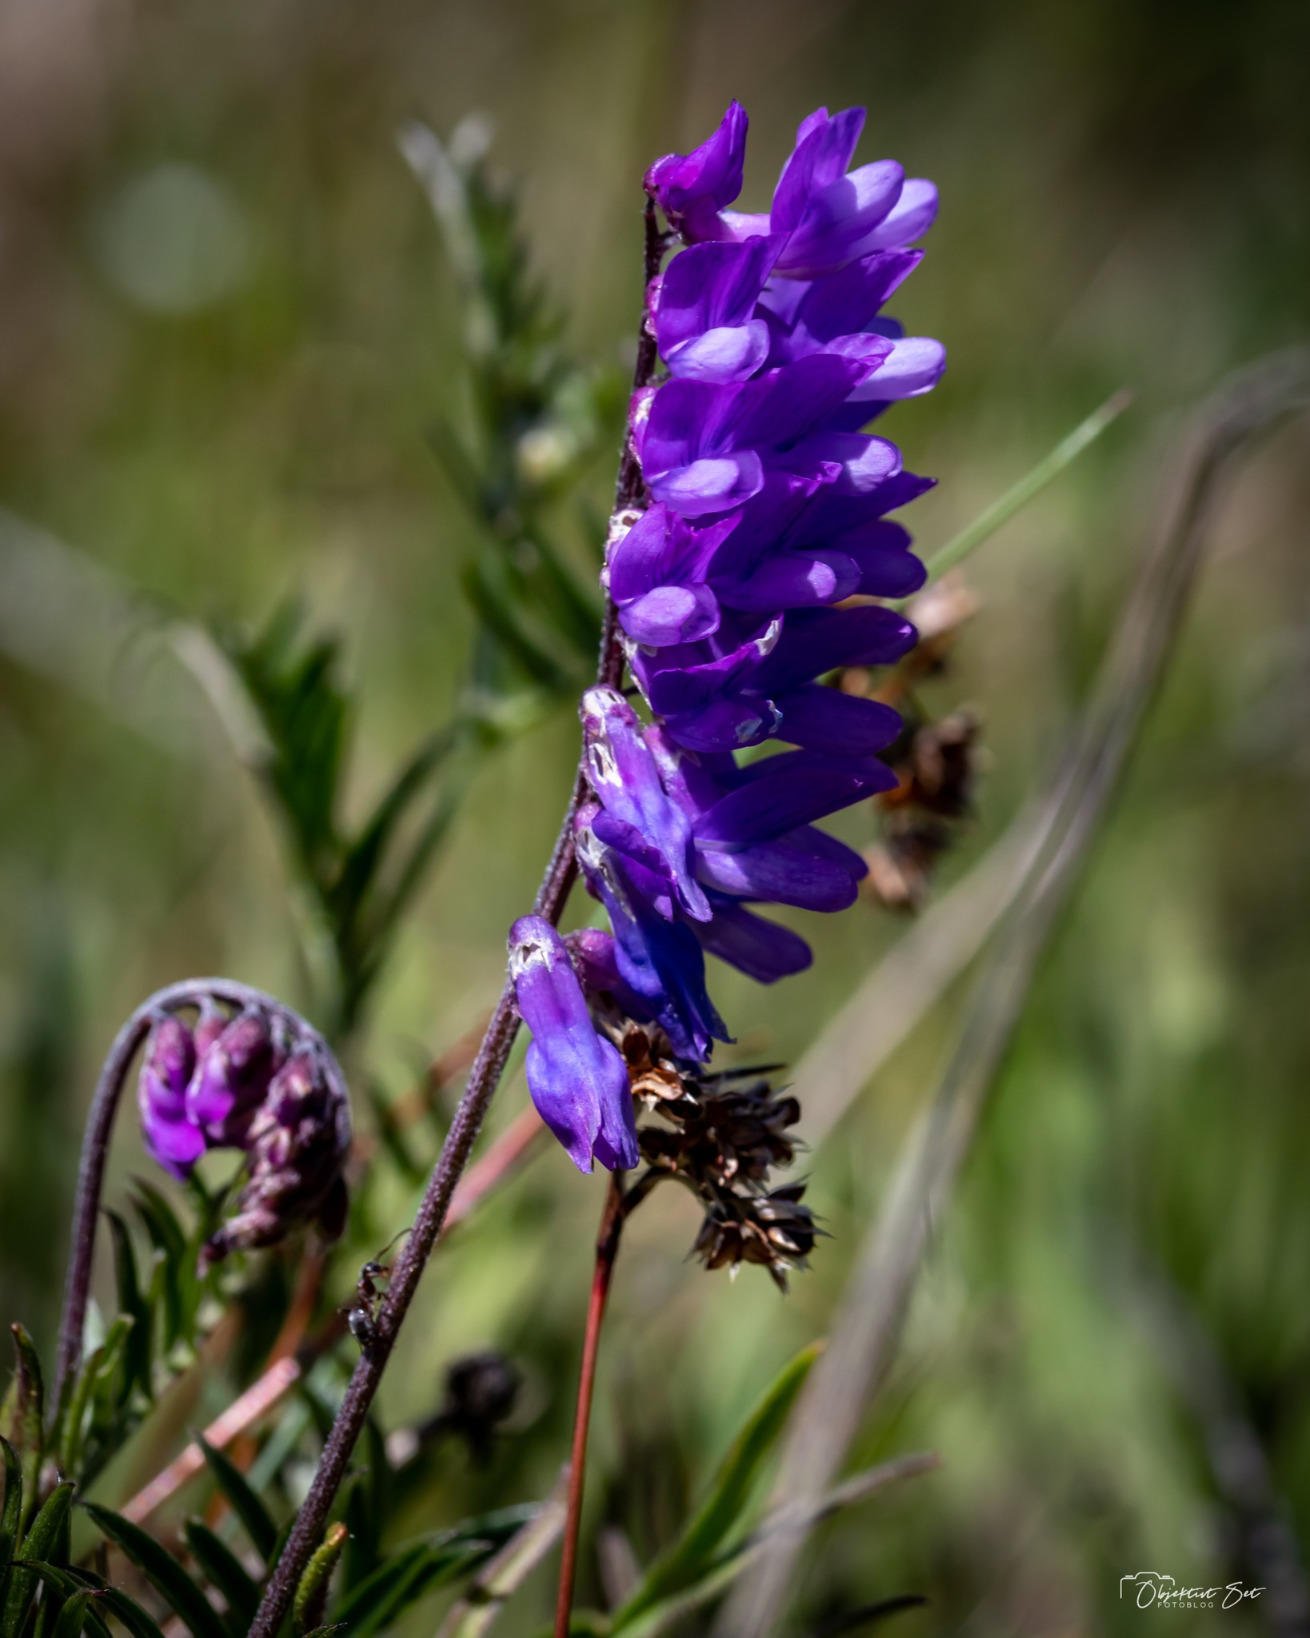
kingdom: Plantae
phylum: Tracheophyta
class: Magnoliopsida
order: Fabales
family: Fabaceae
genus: Vicia
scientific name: Vicia cracca
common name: Muse-vikke
